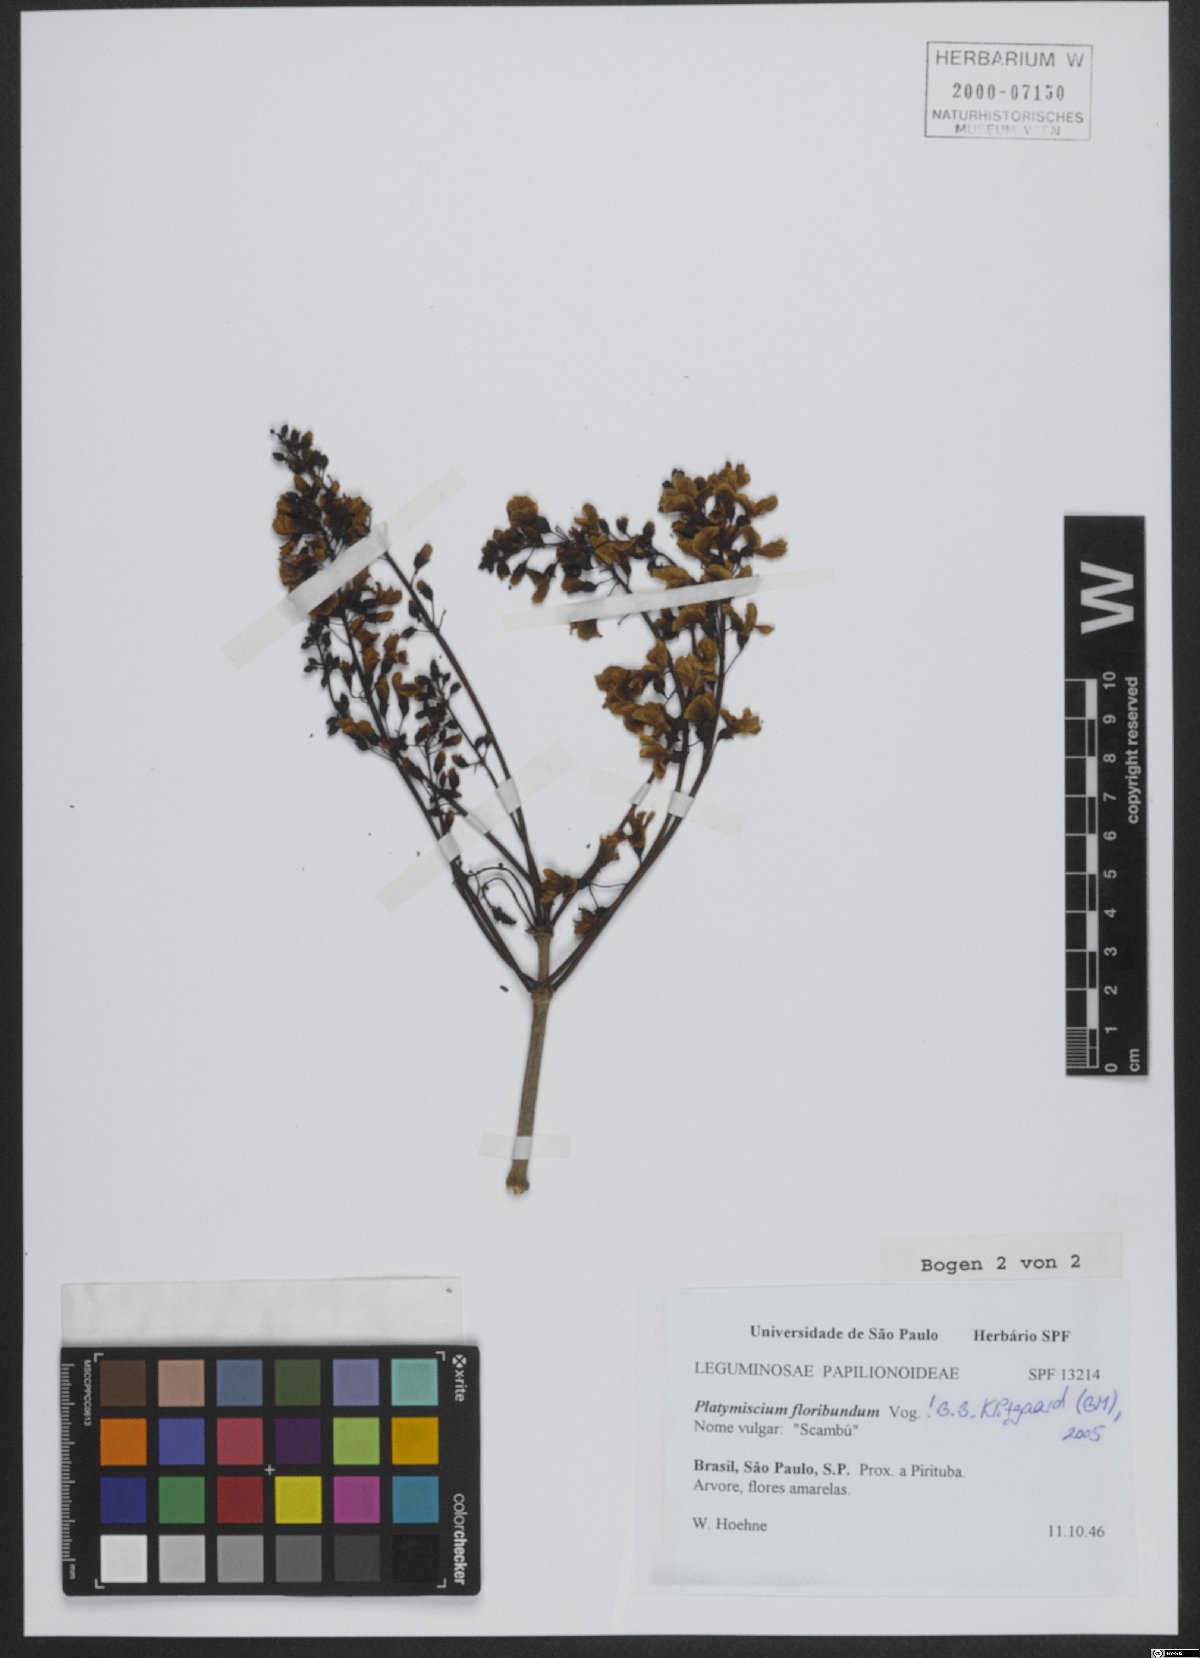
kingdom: Plantae
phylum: Tracheophyta
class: Magnoliopsida
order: Fabales
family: Fabaceae
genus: Platymiscium
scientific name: Platymiscium floribundum
